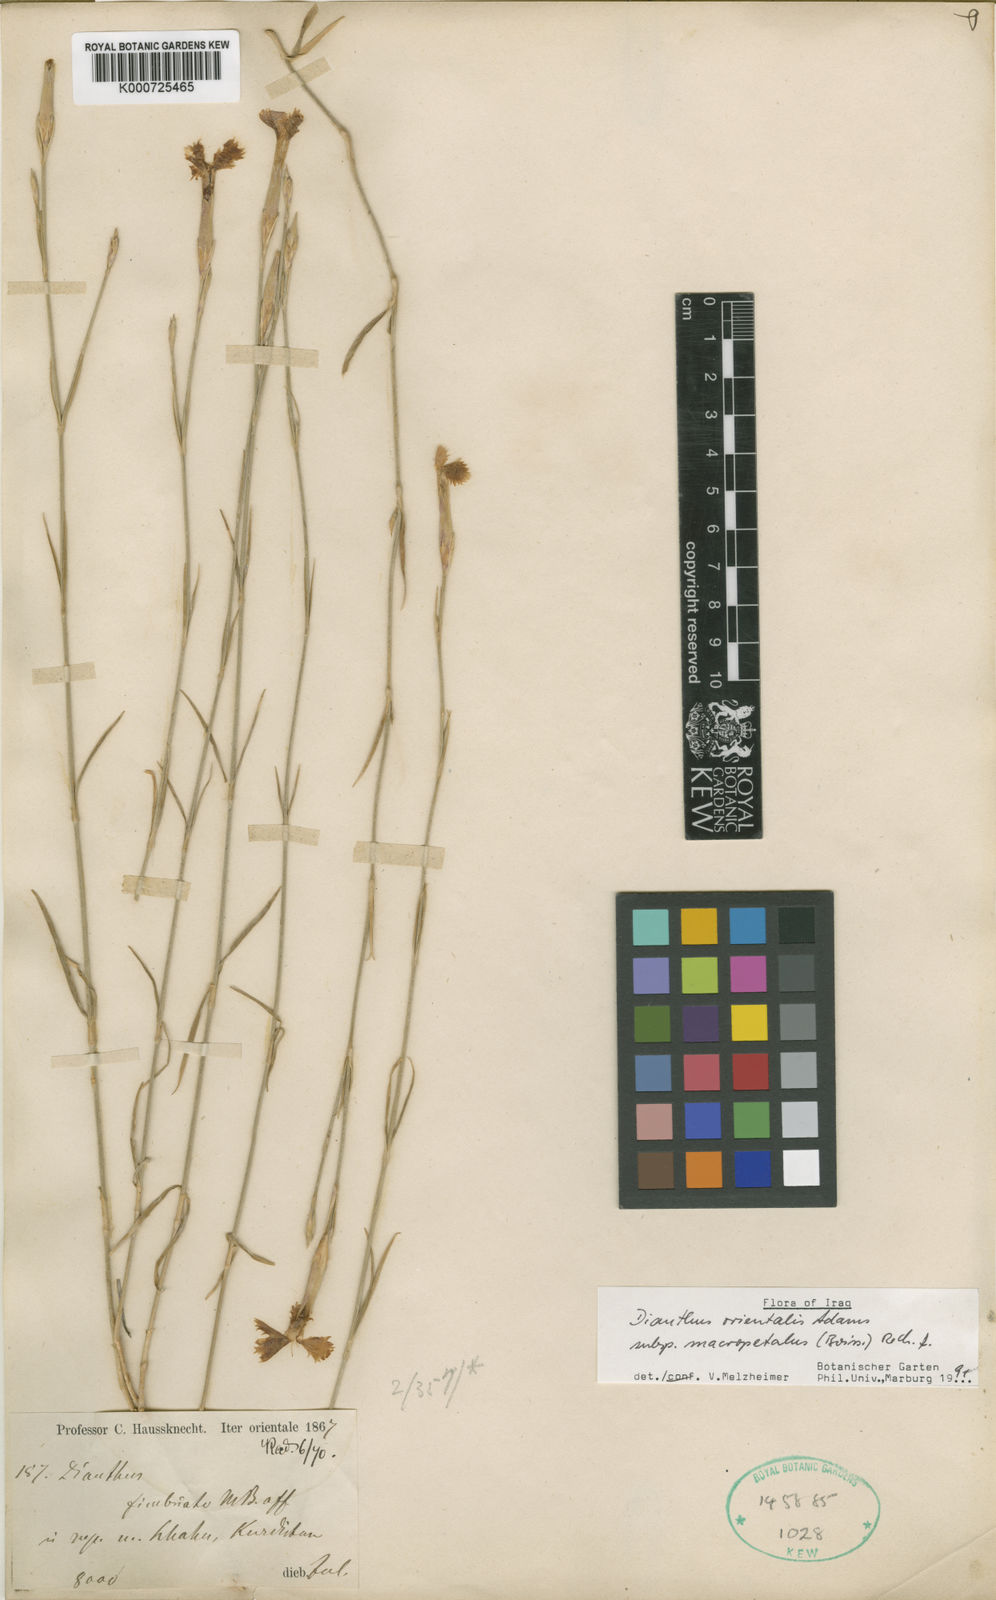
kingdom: Plantae
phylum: Tracheophyta
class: Magnoliopsida
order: Caryophyllales
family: Caryophyllaceae
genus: Dianthus
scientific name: Dianthus orientalis
